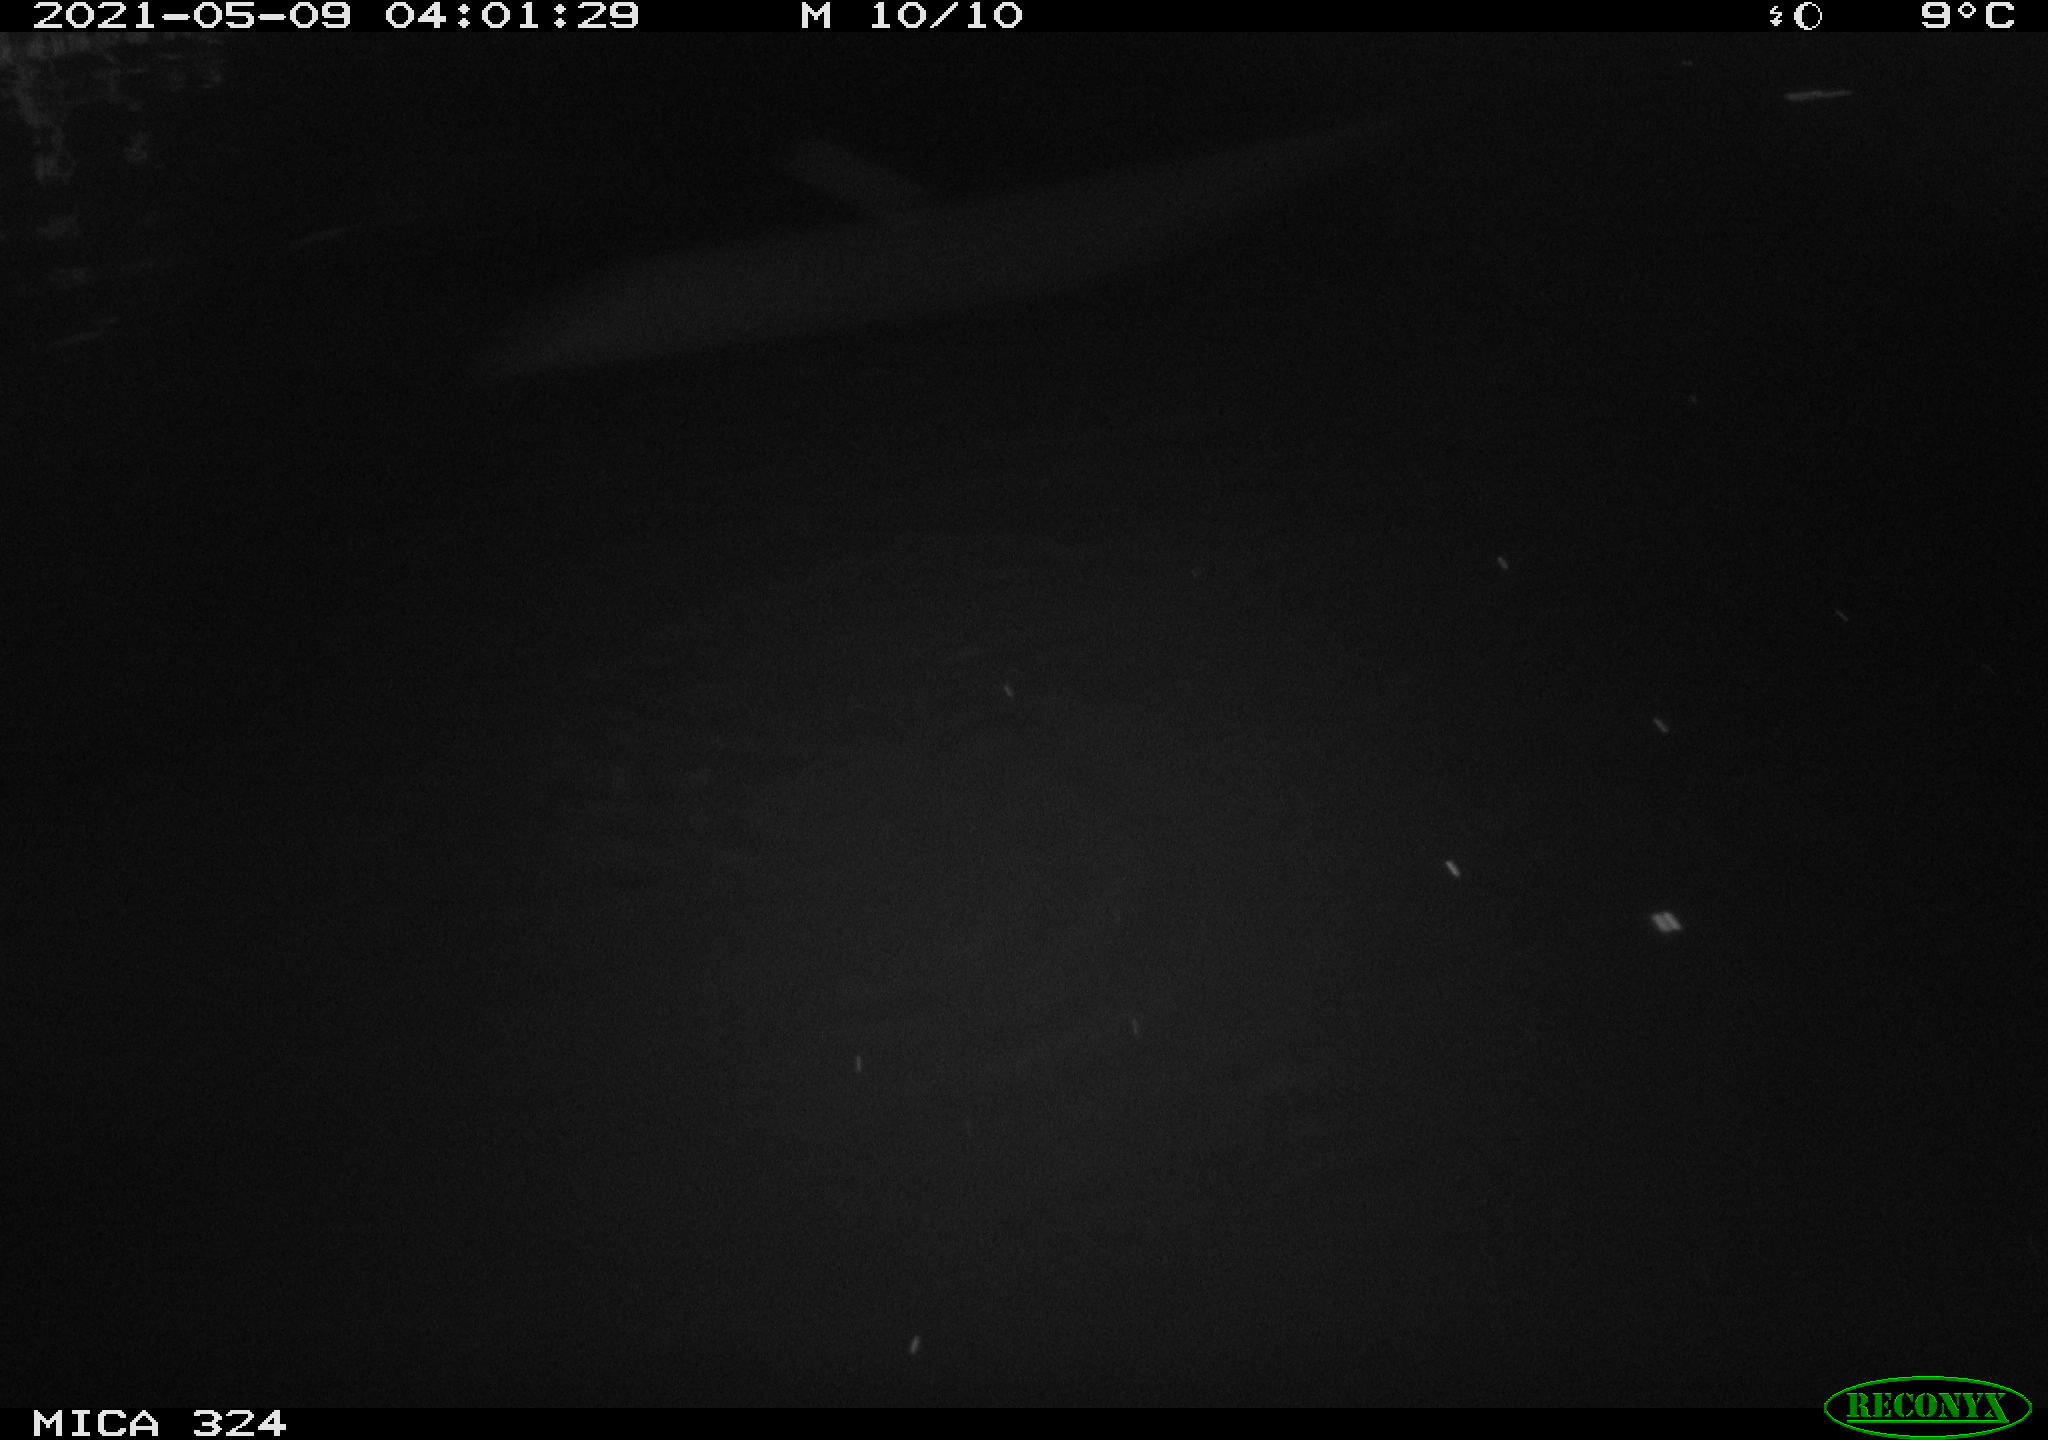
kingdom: Animalia
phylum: Chordata
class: Aves
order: Anseriformes
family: Anatidae
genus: Anas
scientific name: Anas platyrhynchos
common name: Mallard
